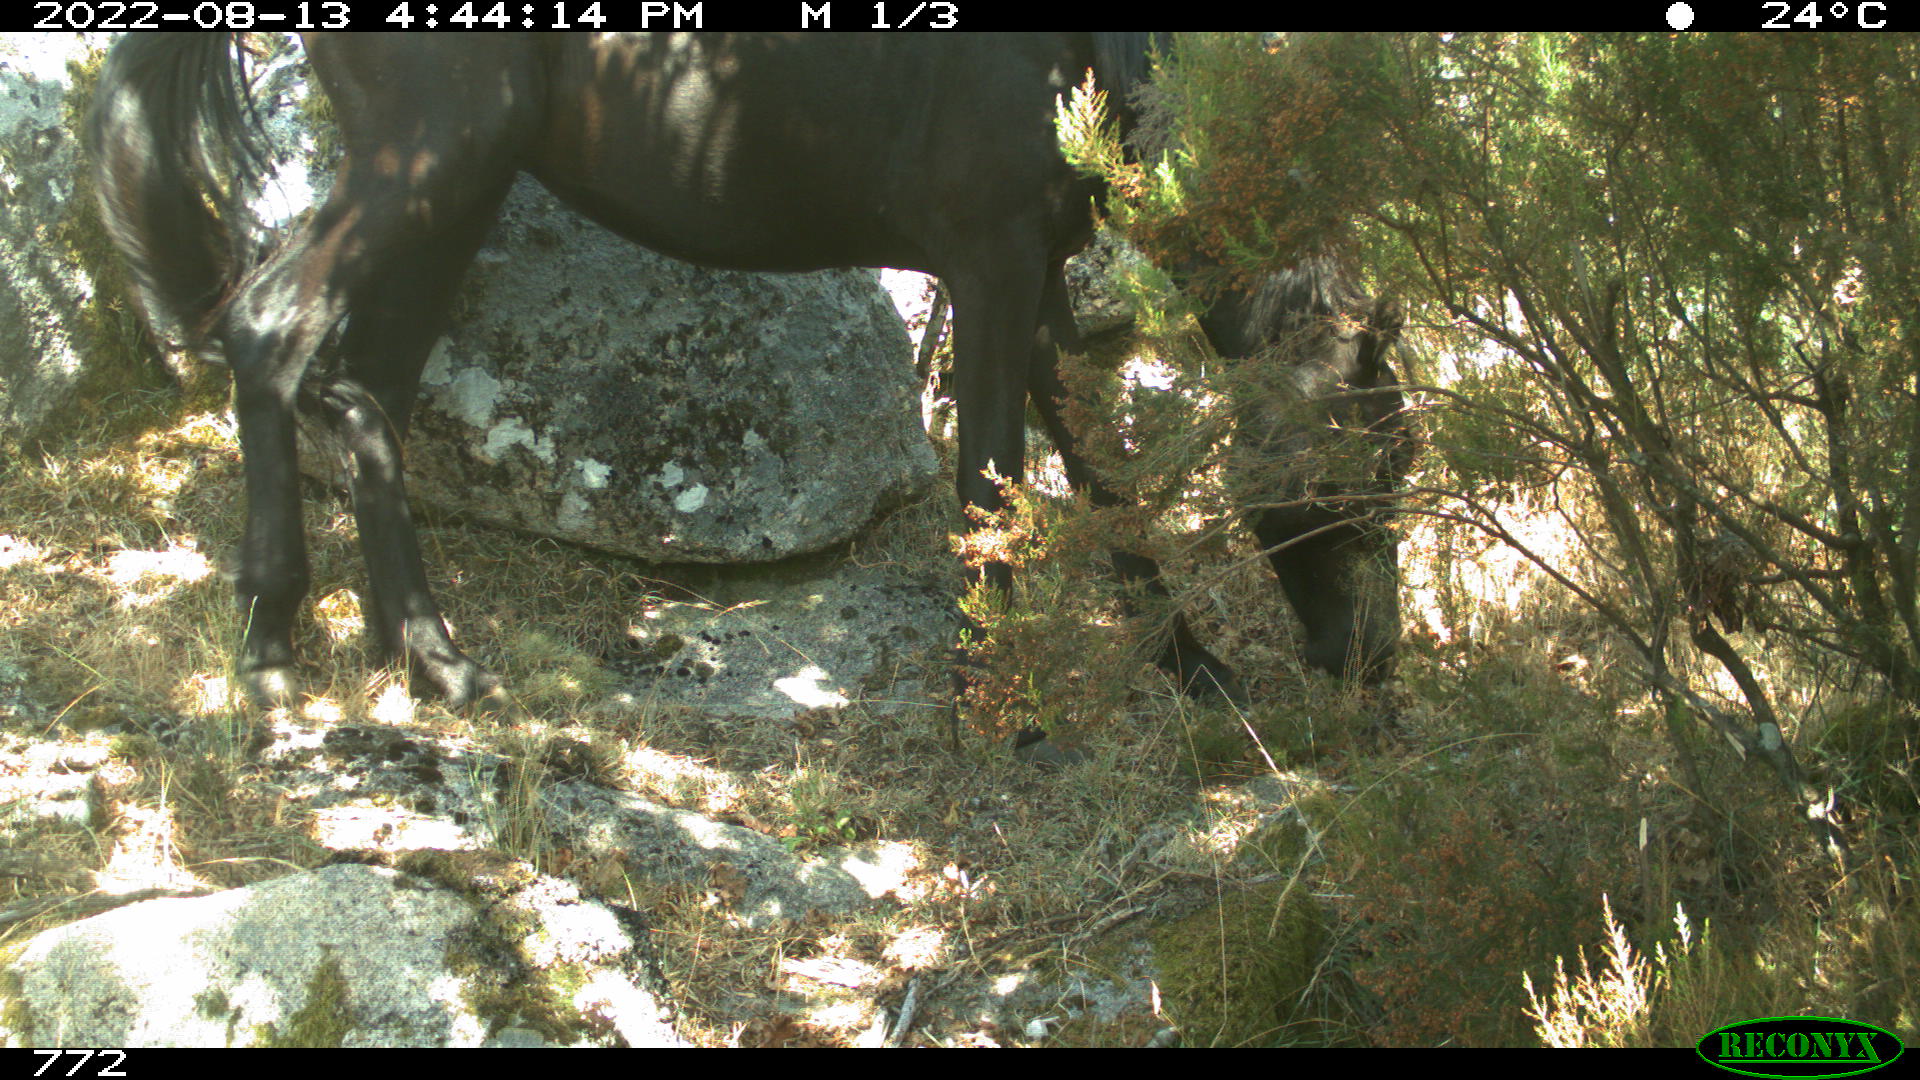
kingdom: Animalia
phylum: Chordata
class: Mammalia
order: Perissodactyla
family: Equidae
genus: Equus
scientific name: Equus caballus
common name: Horse
